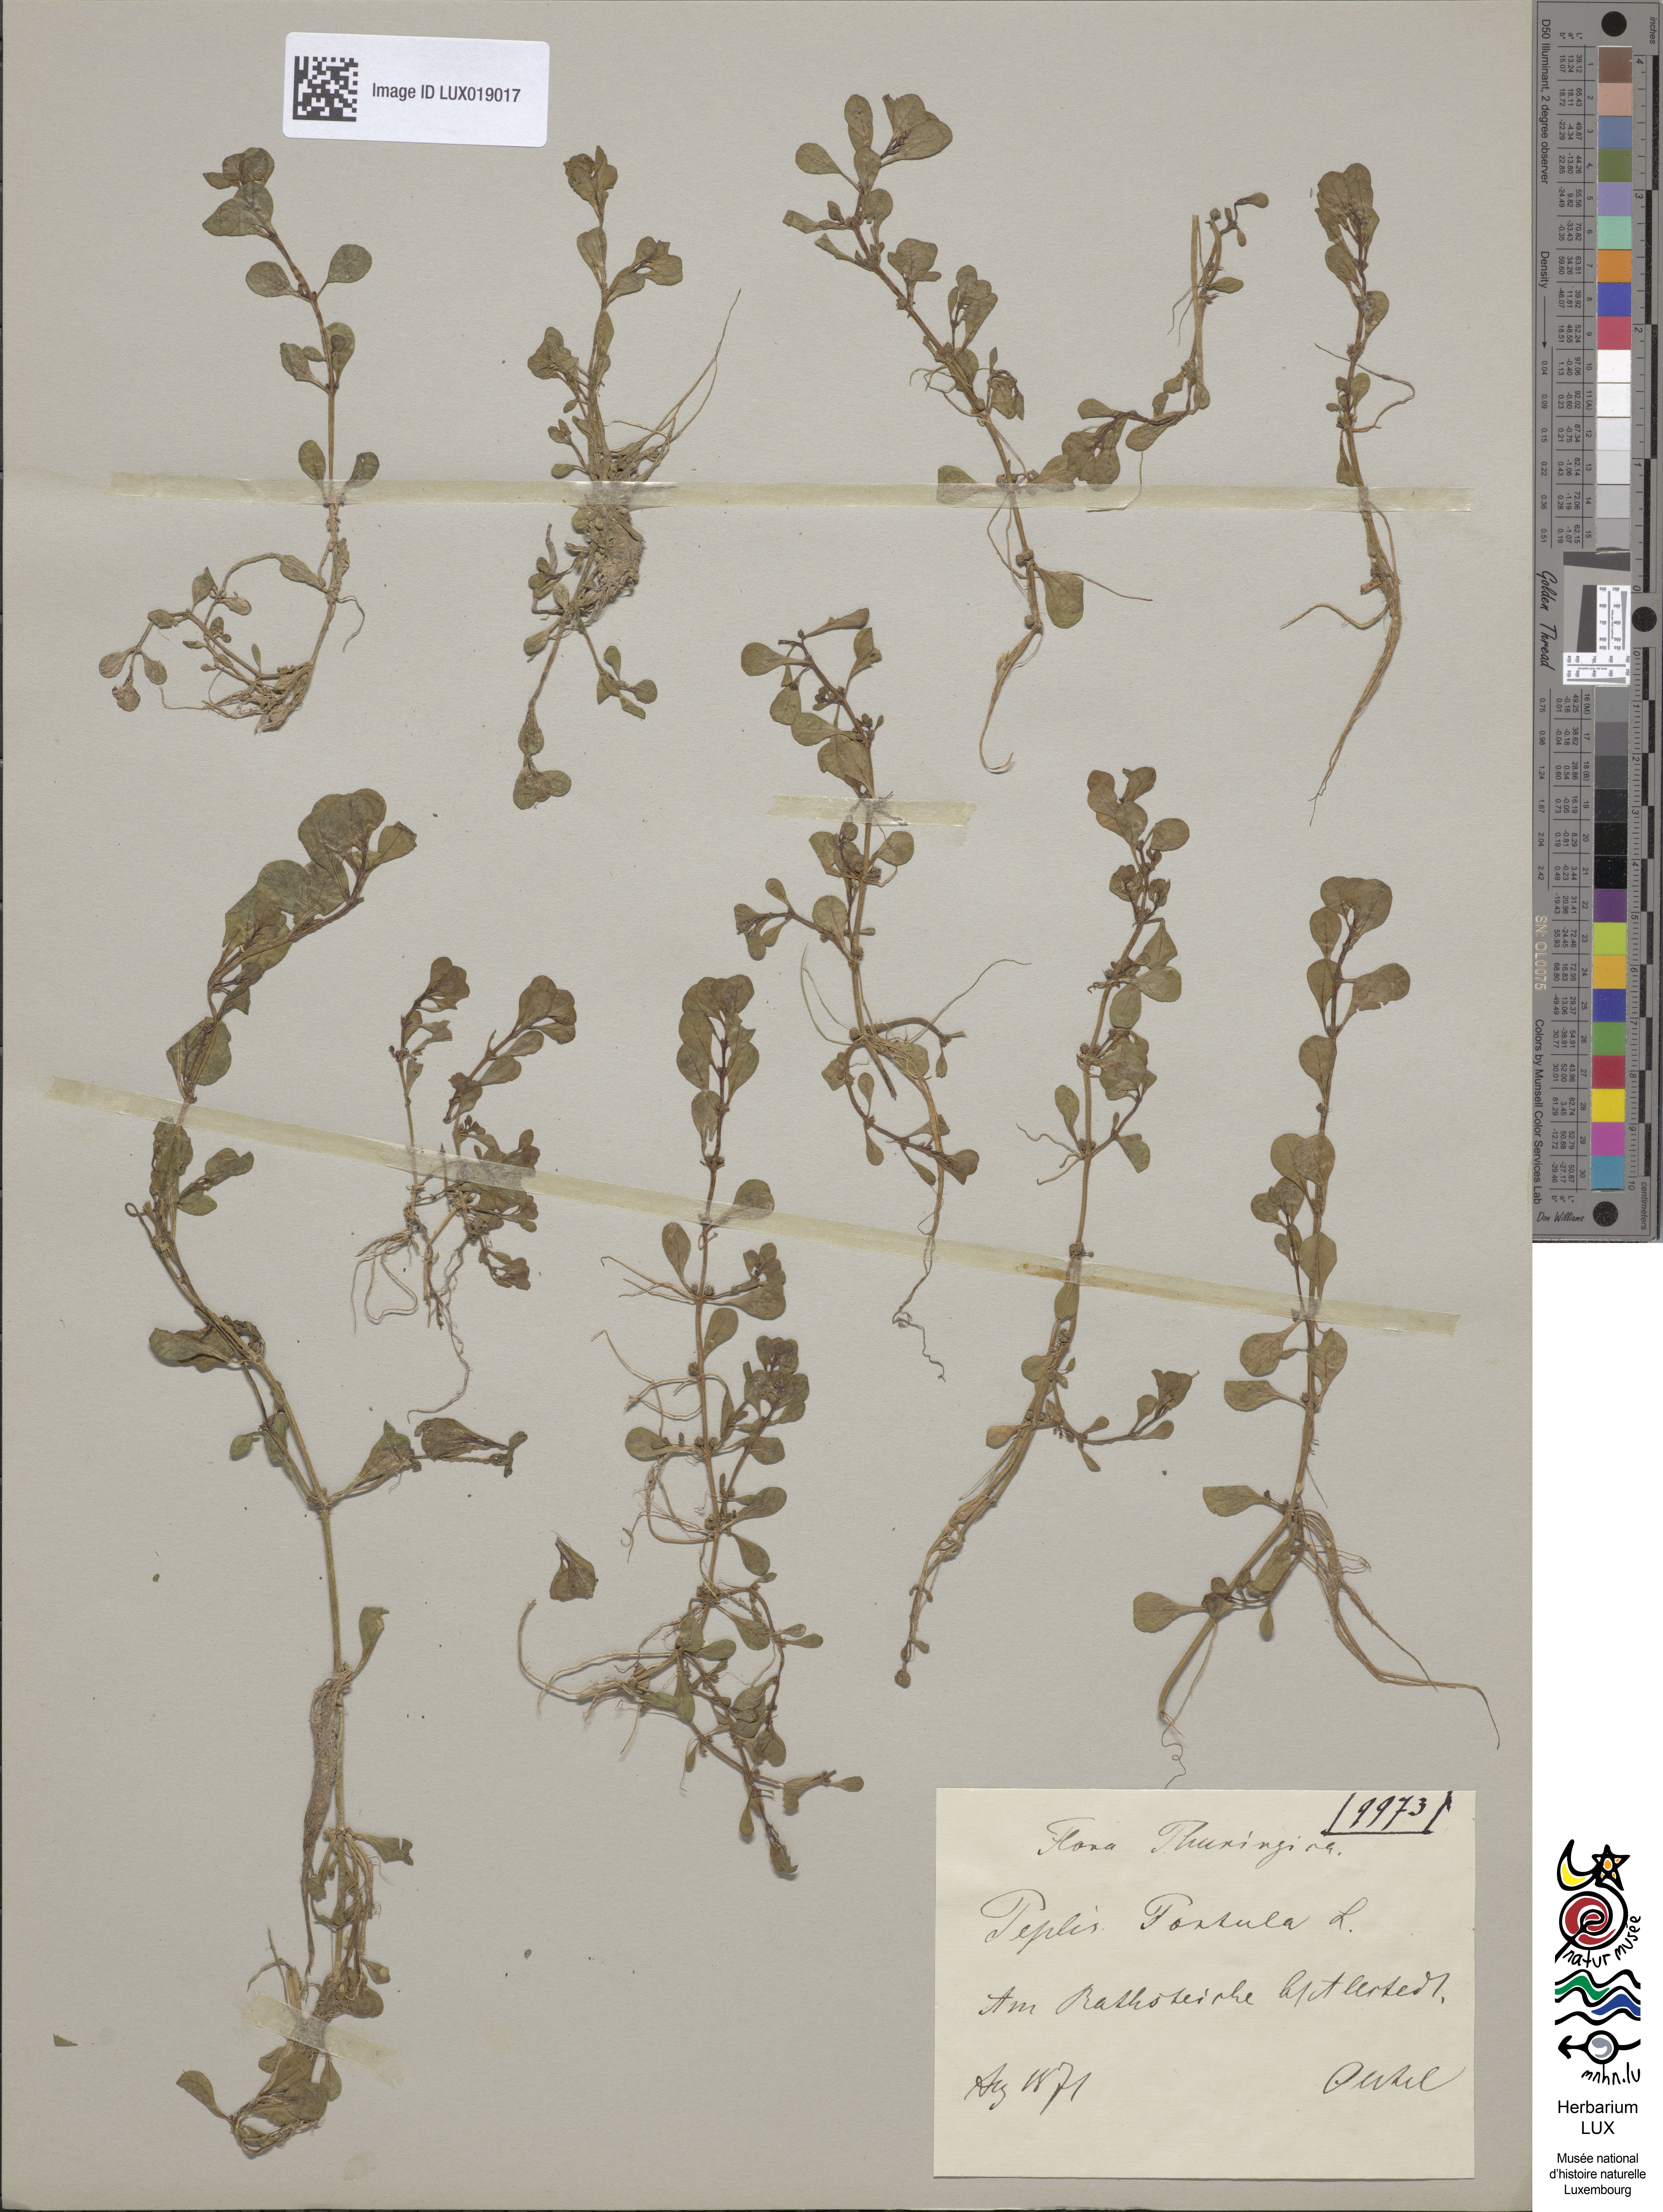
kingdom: Plantae
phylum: Tracheophyta
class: Magnoliopsida
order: Myrtales
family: Lythraceae
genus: Lythrum
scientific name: Lythrum portula
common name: Water purslane
